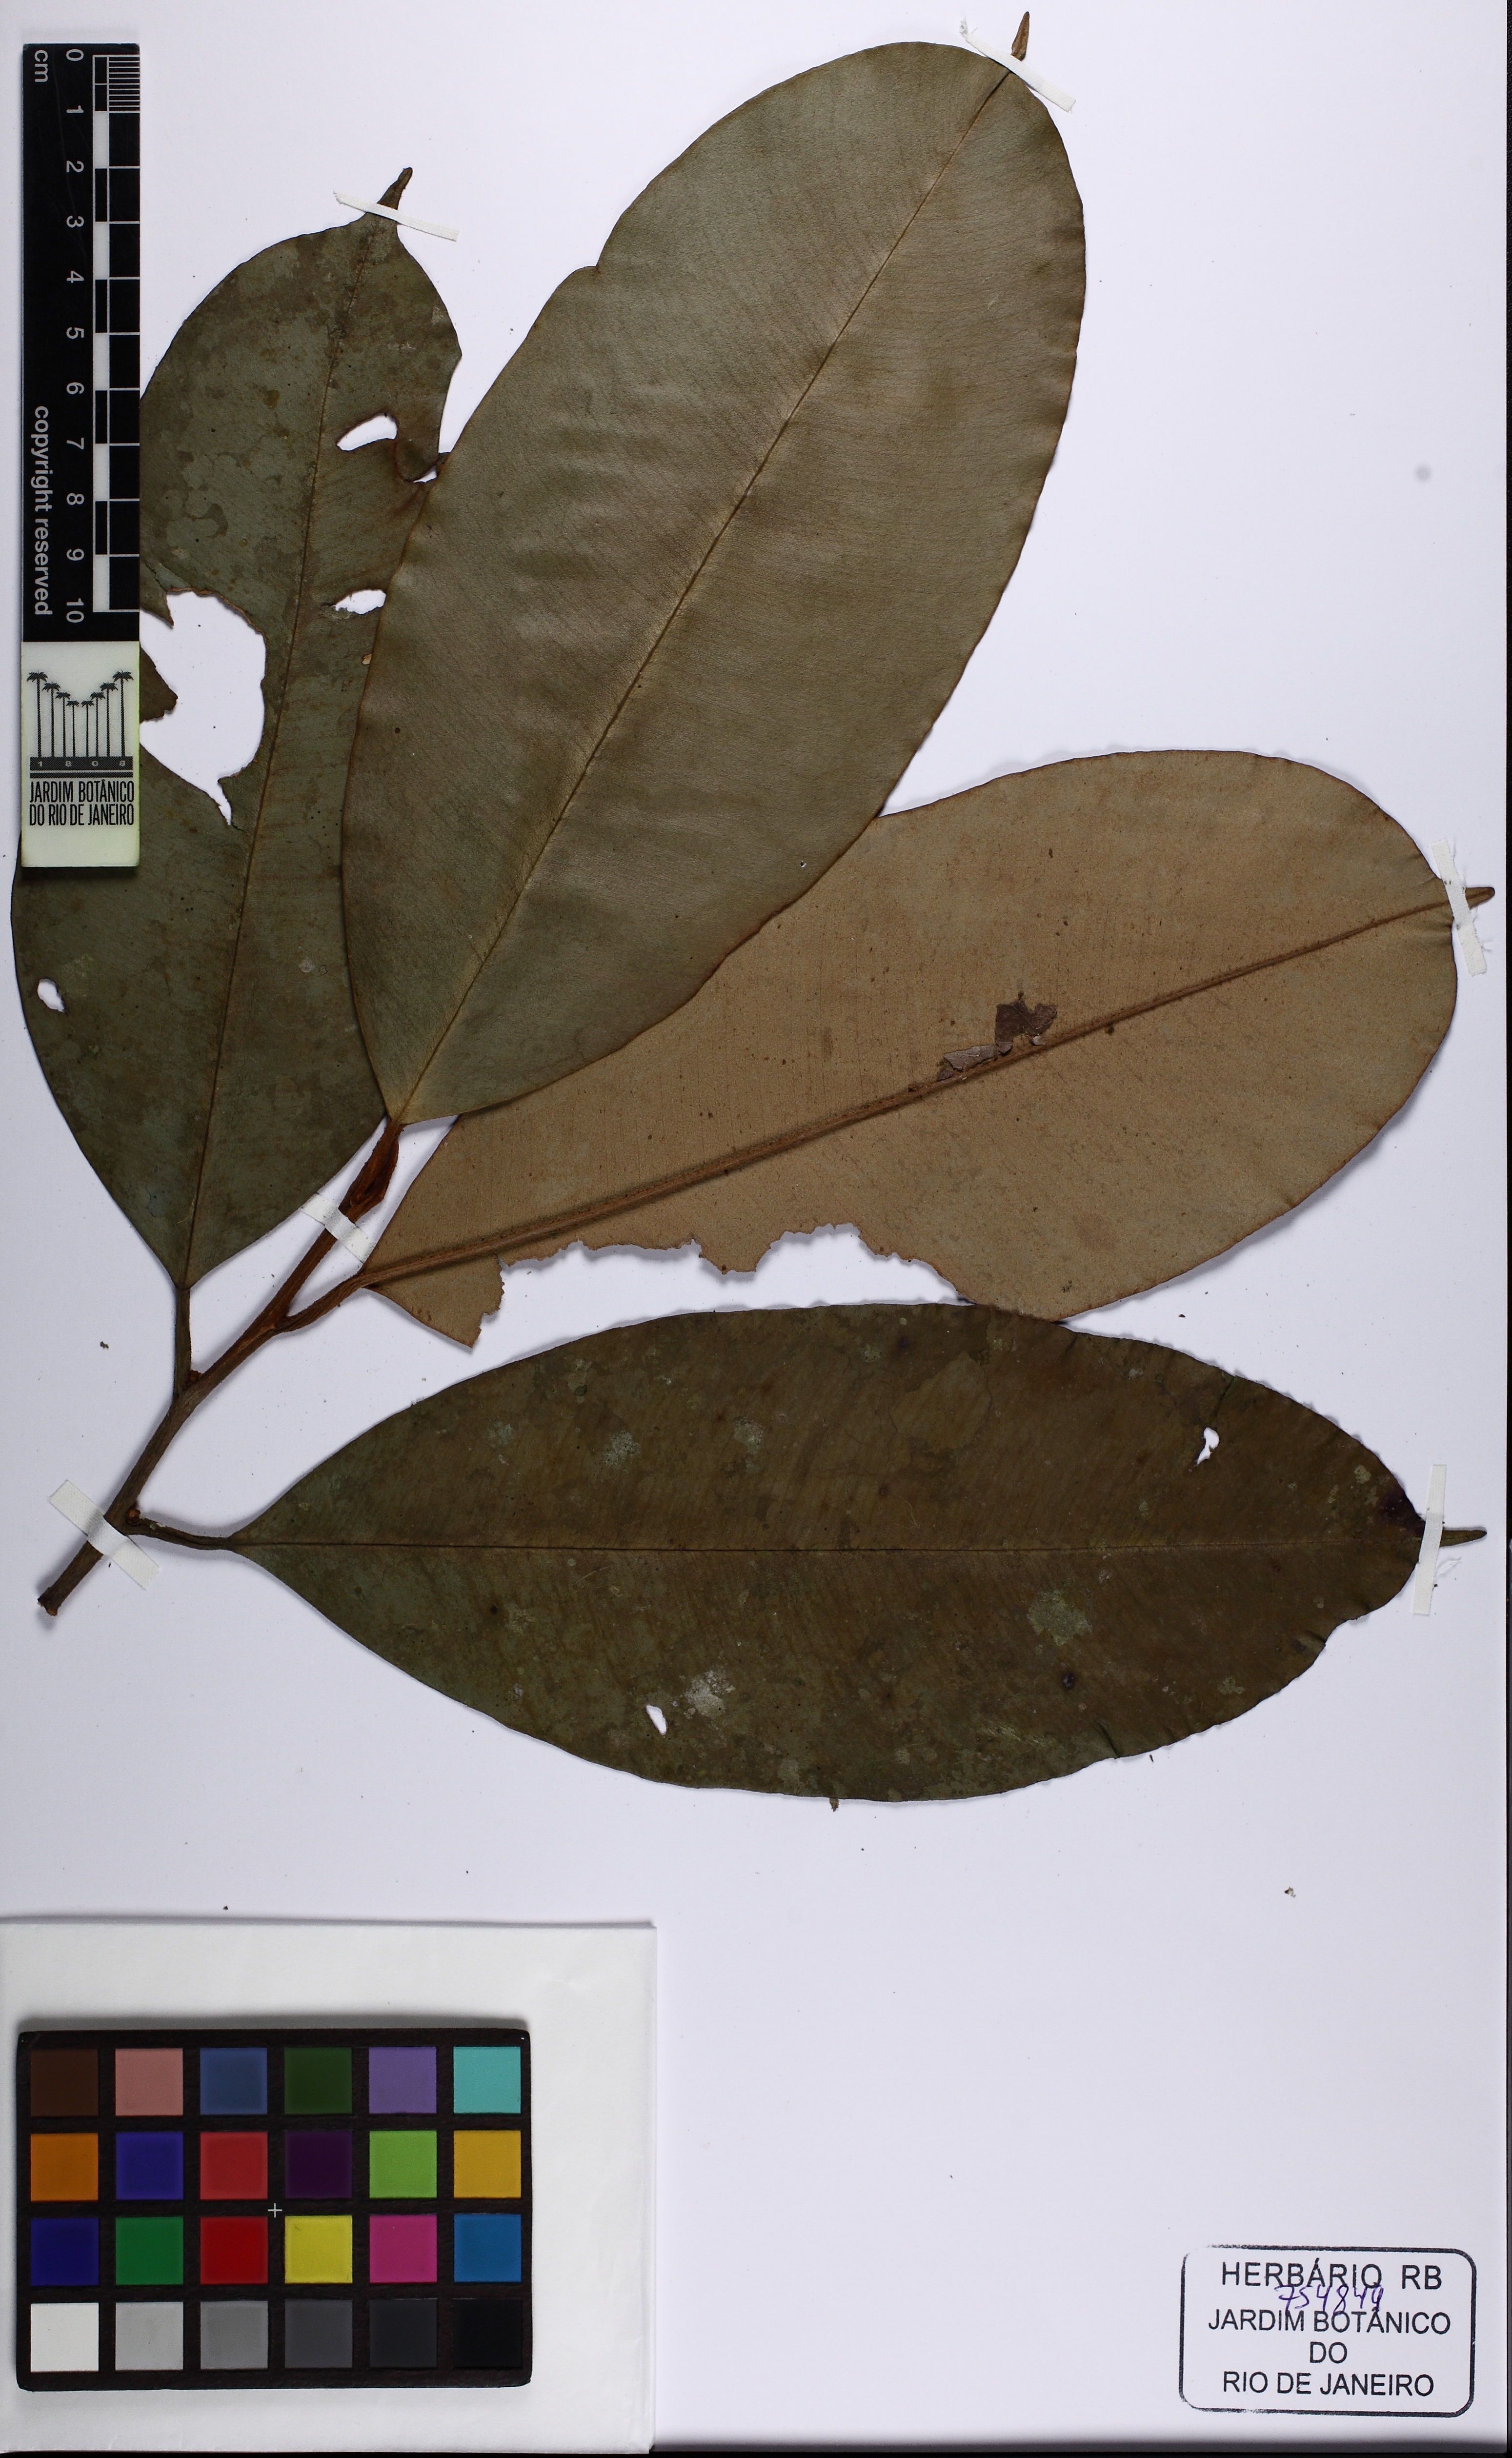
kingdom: Plantae
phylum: Tracheophyta
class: Magnoliopsida
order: Ericales
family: Sapotaceae
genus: Micropholis
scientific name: Micropholis macrophylla
